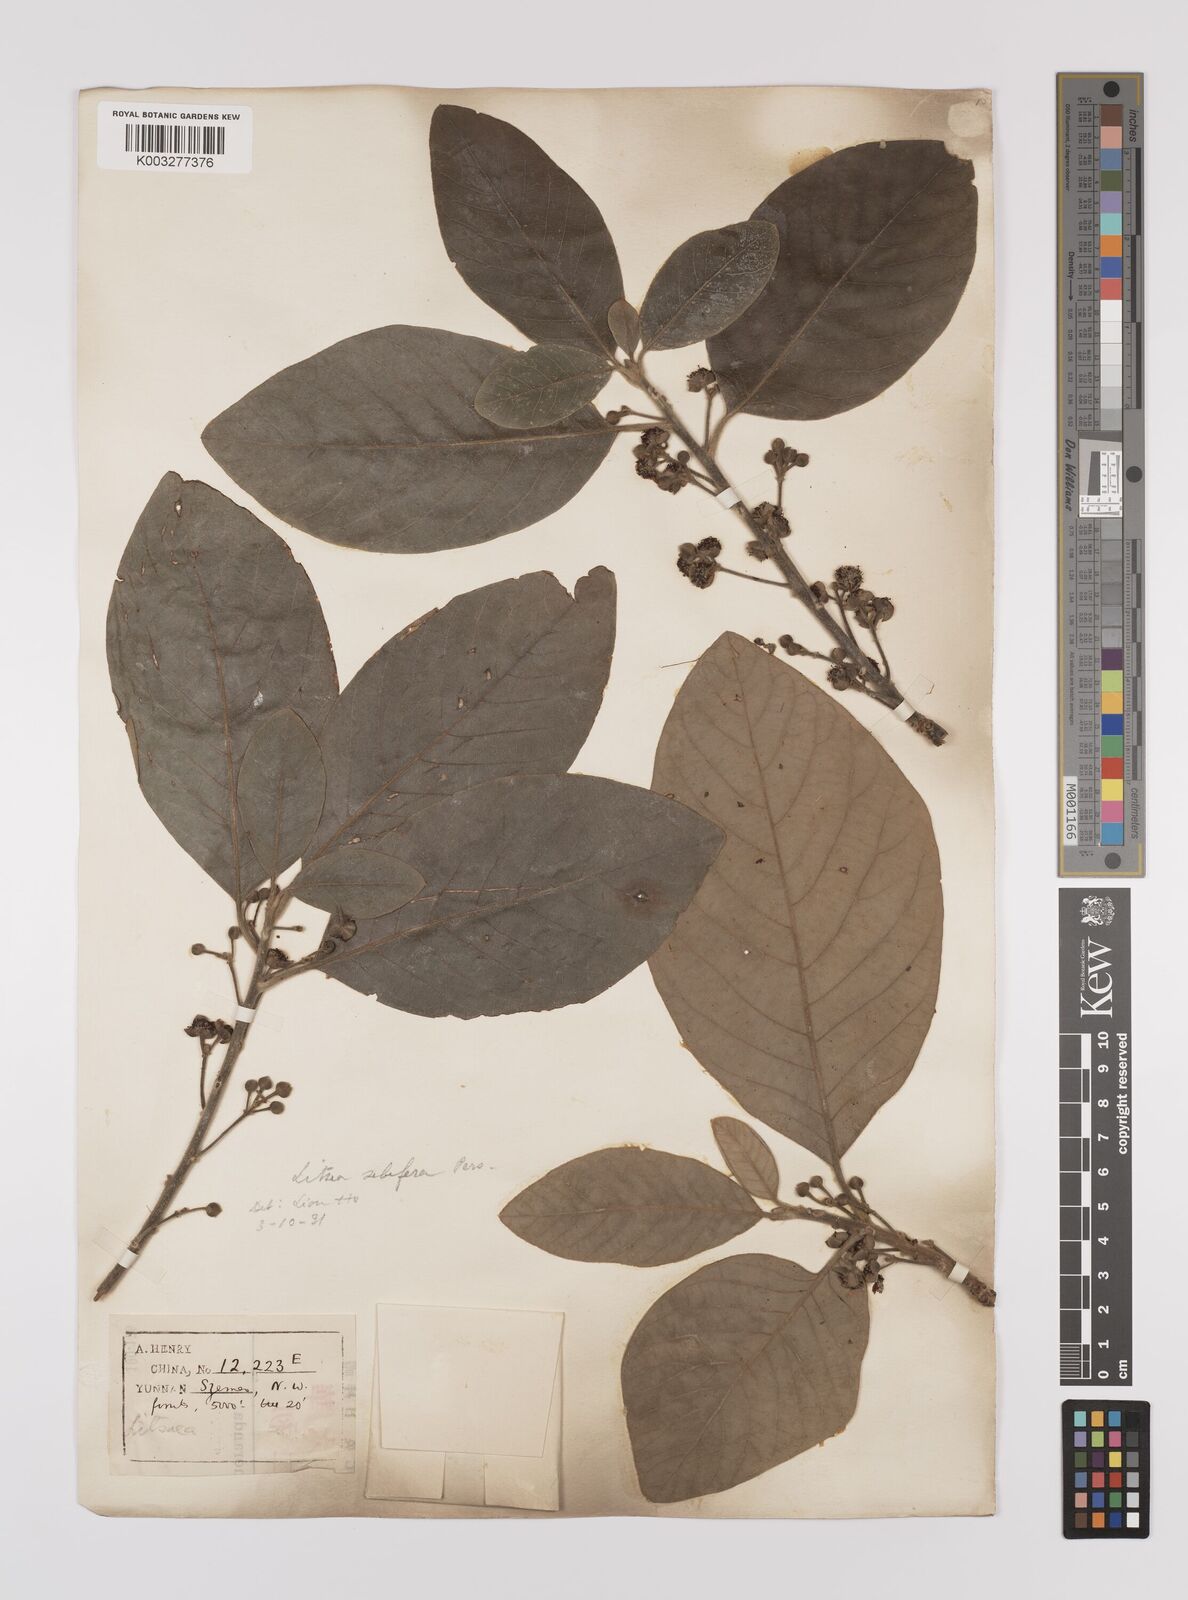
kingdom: Plantae
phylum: Tracheophyta
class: Magnoliopsida
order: Laurales
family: Lauraceae
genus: Litsea
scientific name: Litsea glutinosa
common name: Indian-laurel
